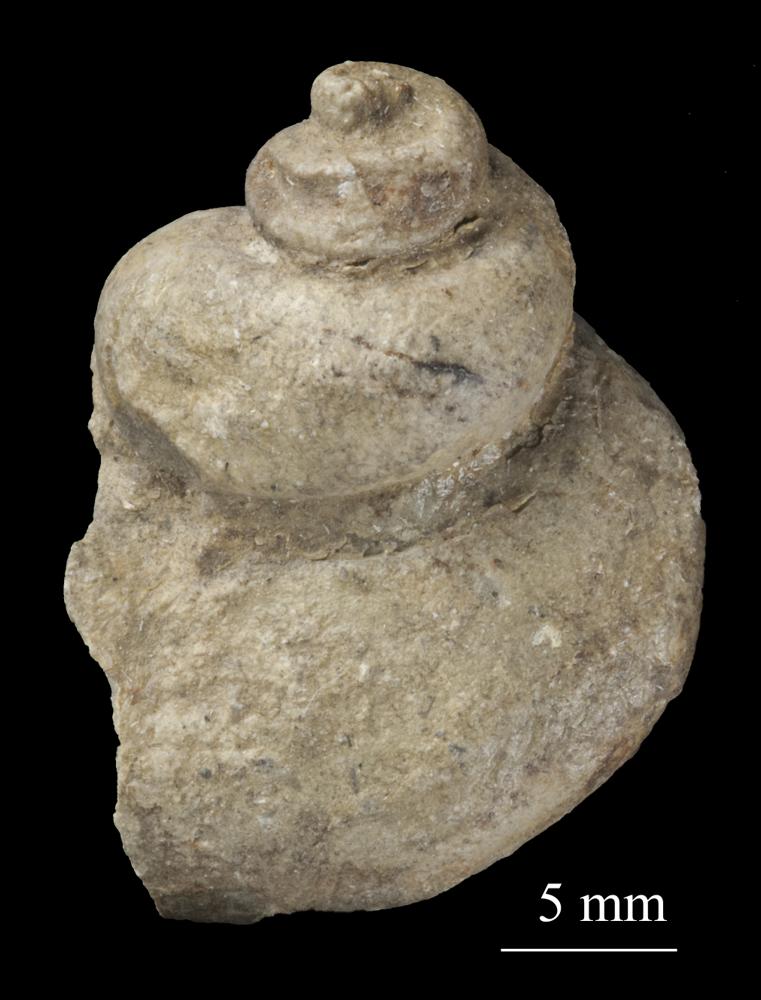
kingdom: Animalia
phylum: Mollusca
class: Gastropoda
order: Pleurotomariida
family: Phymatopleuridae
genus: Worthenia
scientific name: Worthenia
